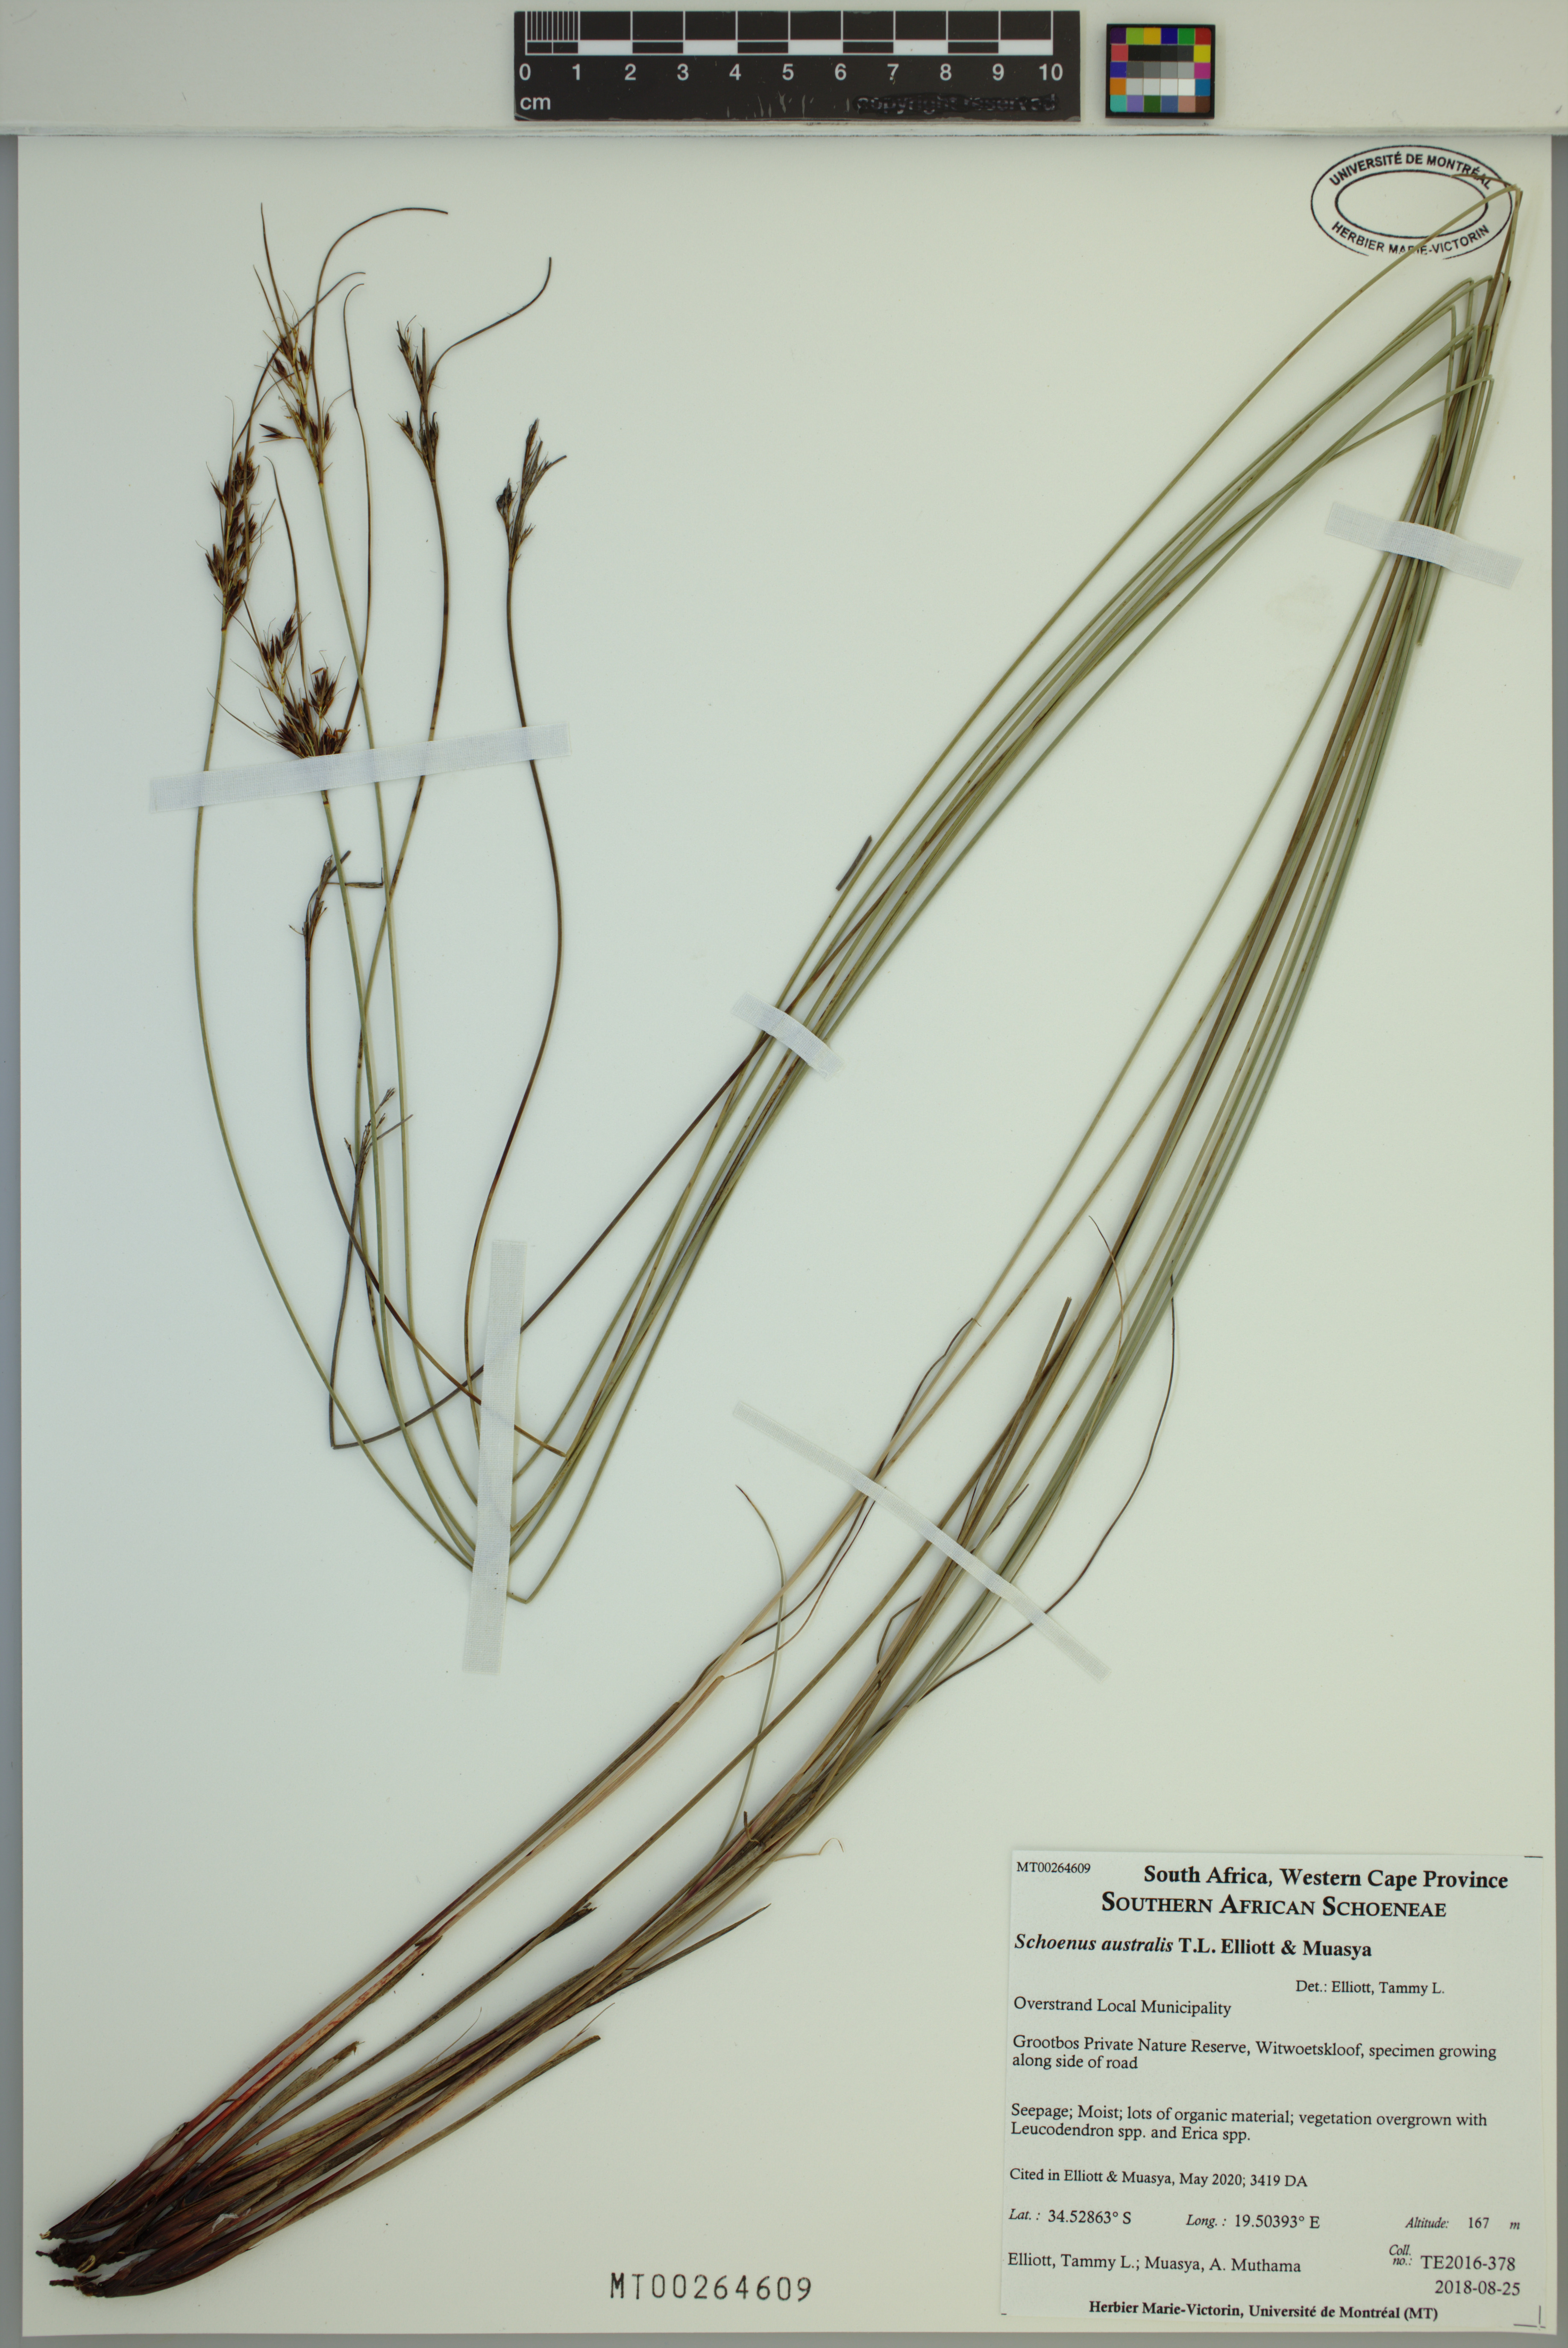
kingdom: Plantae
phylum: Tracheophyta
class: Liliopsida
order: Poales
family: Cyperaceae
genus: Schoenus
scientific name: Schoenus australis
